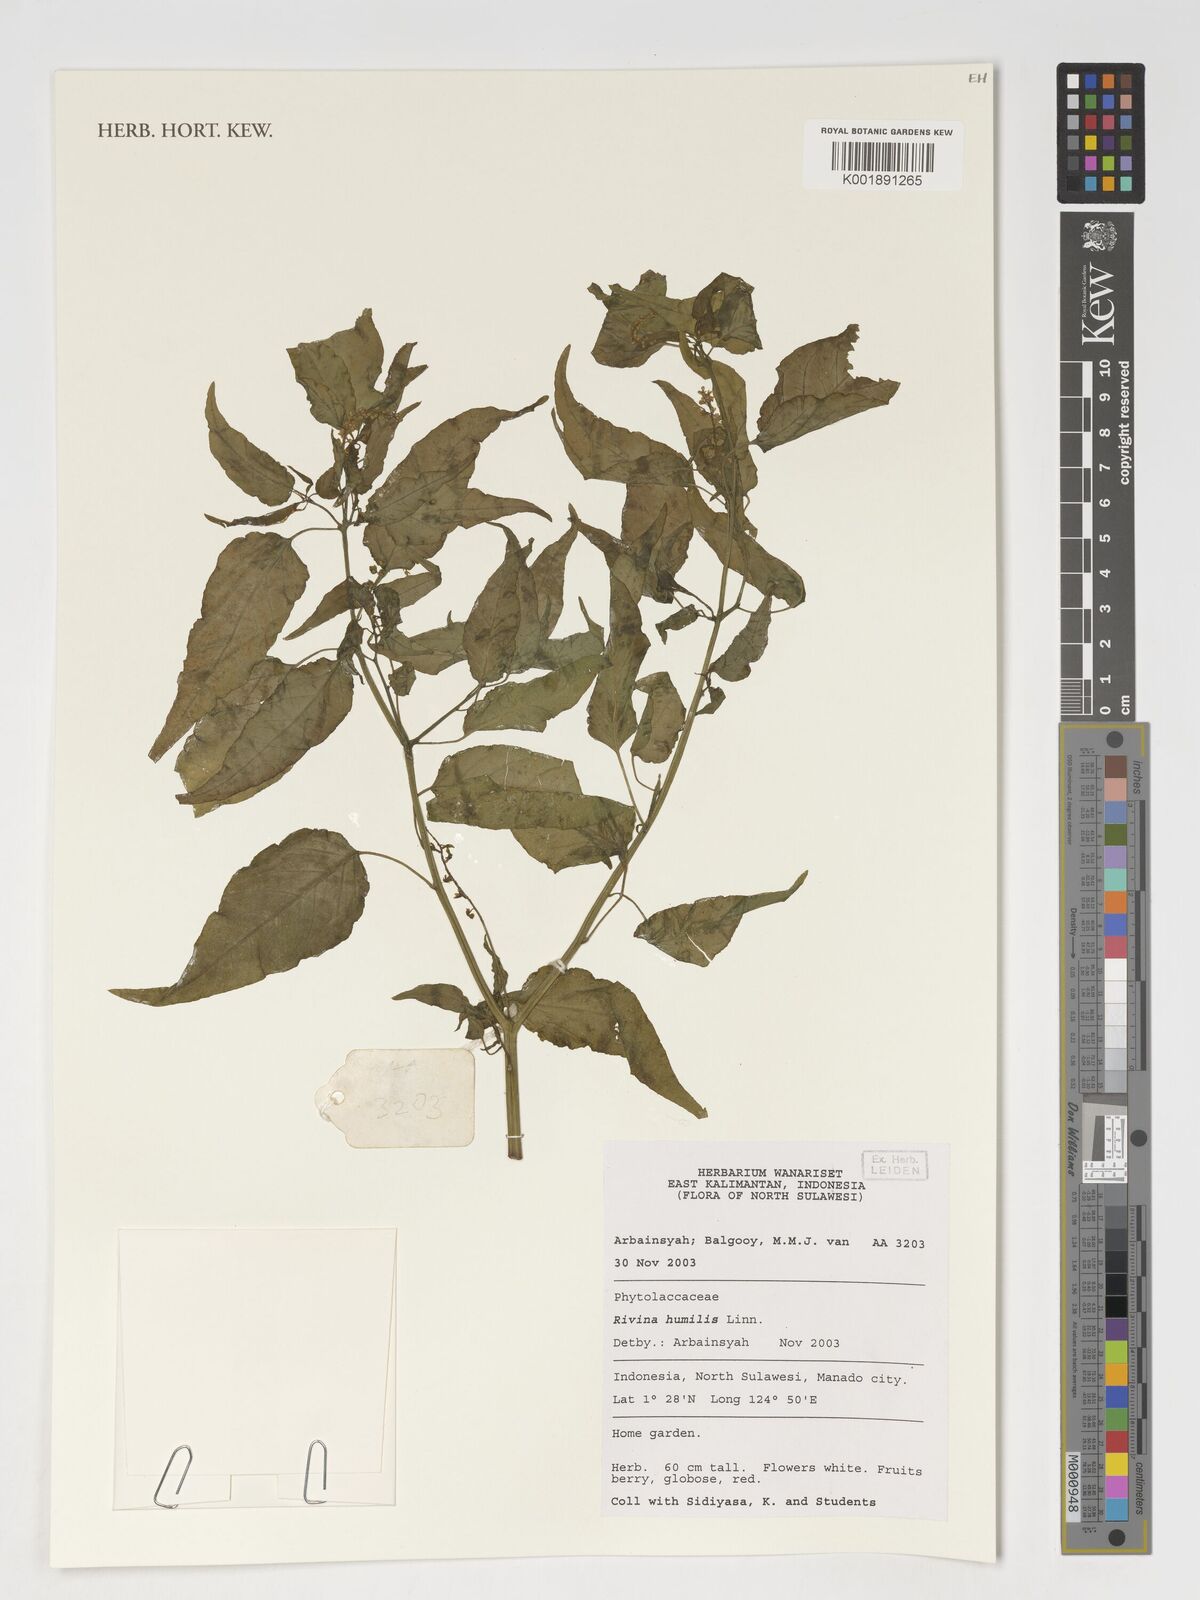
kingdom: Plantae
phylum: Tracheophyta
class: Magnoliopsida
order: Caryophyllales
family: Phytolaccaceae
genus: Rivina
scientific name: Rivina humilis
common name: Rougeplant
